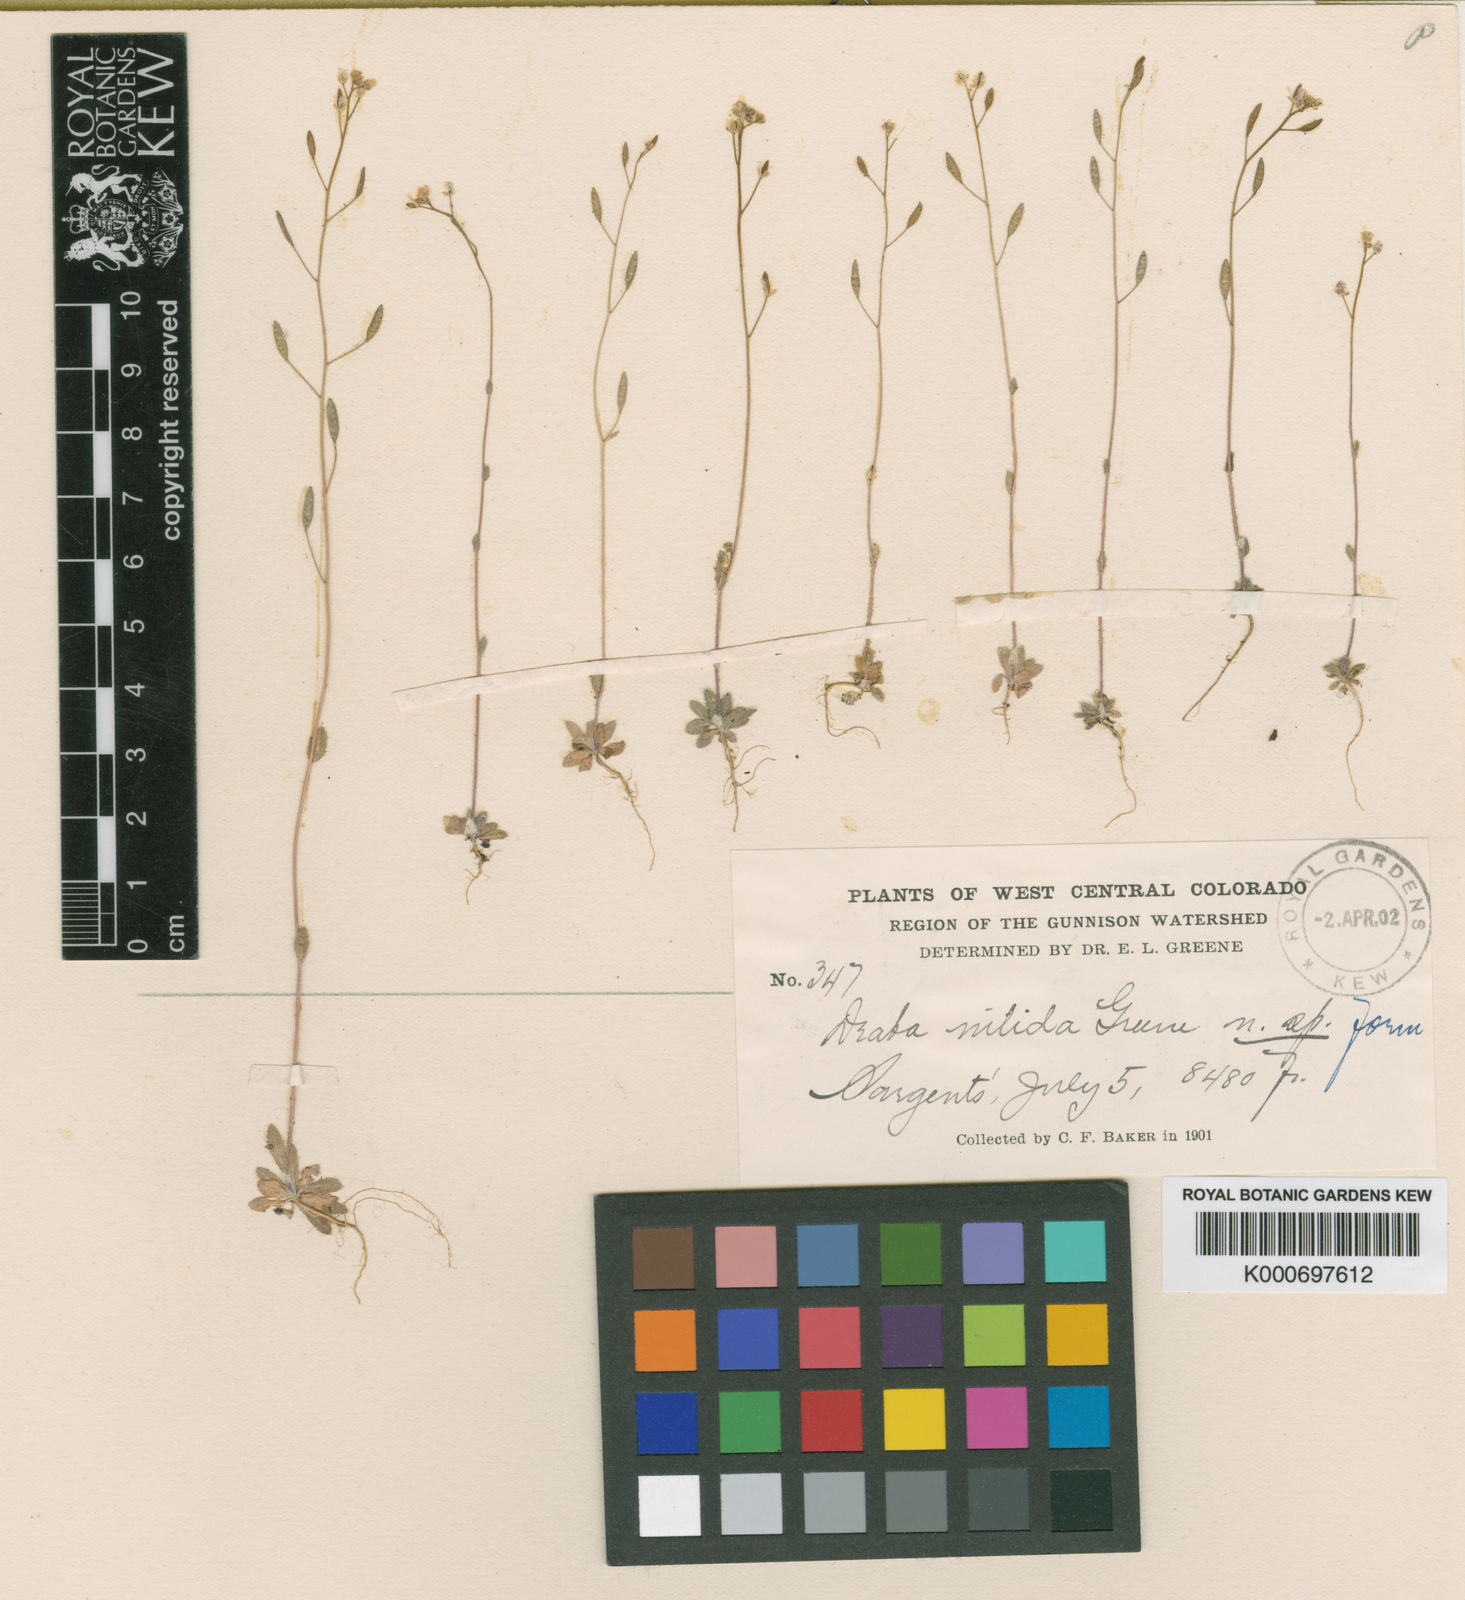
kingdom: Plantae
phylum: Tracheophyta
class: Magnoliopsida
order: Brassicales
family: Brassicaceae
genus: Draba
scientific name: Draba albertina
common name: Slender draba
